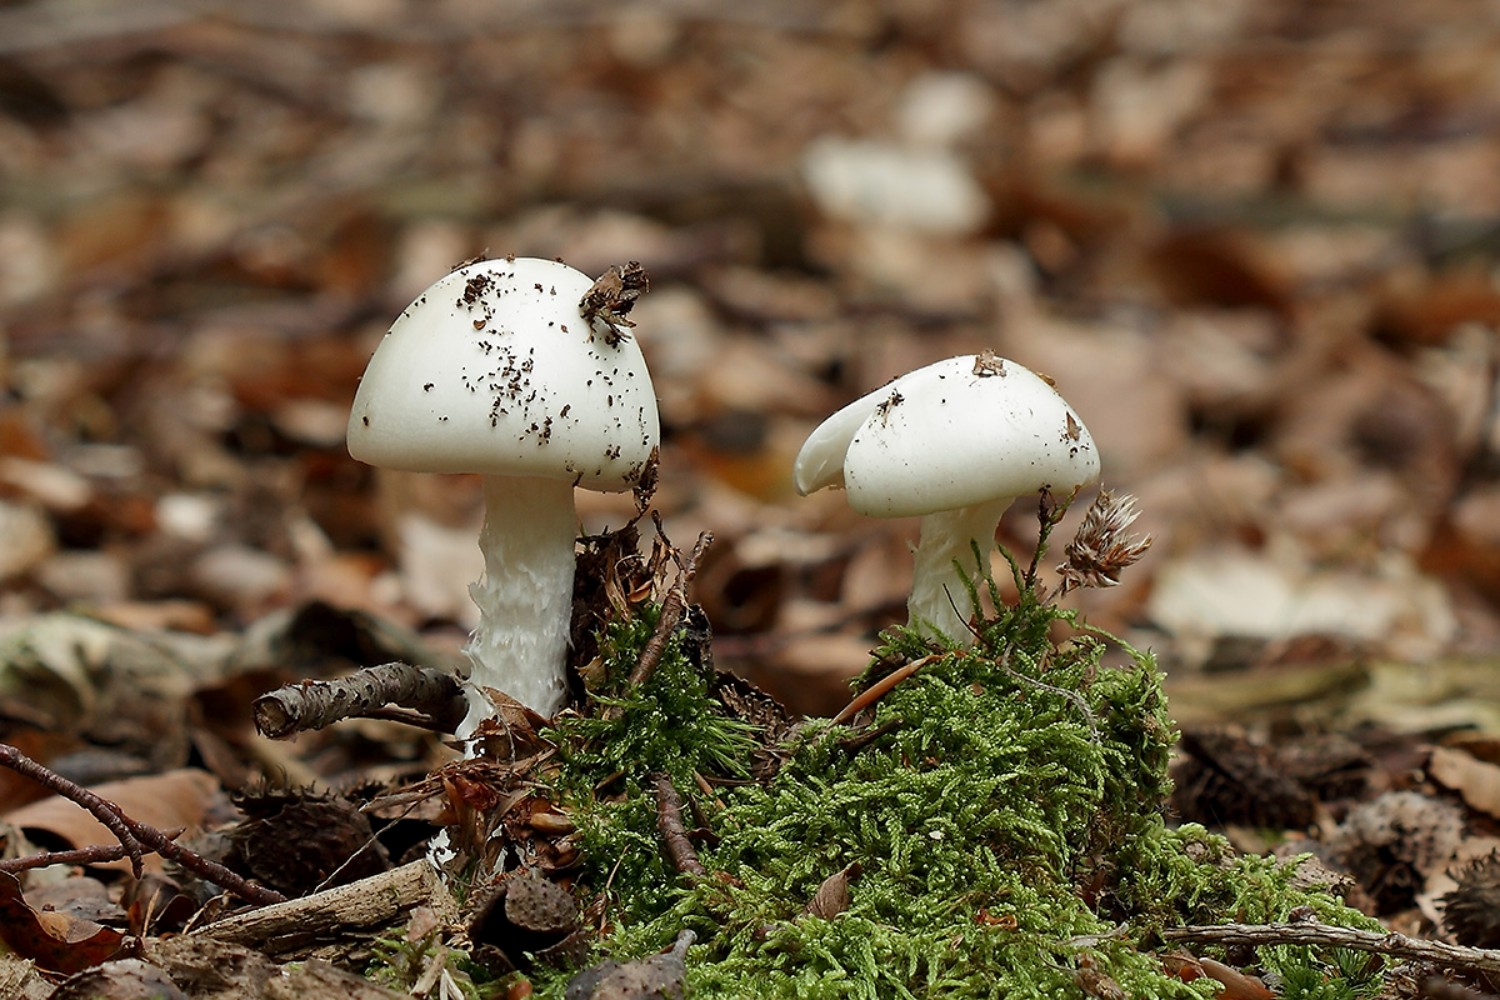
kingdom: Fungi
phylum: Basidiomycota
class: Agaricomycetes
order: Agaricales
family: Amanitaceae
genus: Amanita
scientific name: Amanita virosa
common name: snehvid fluesvamp
